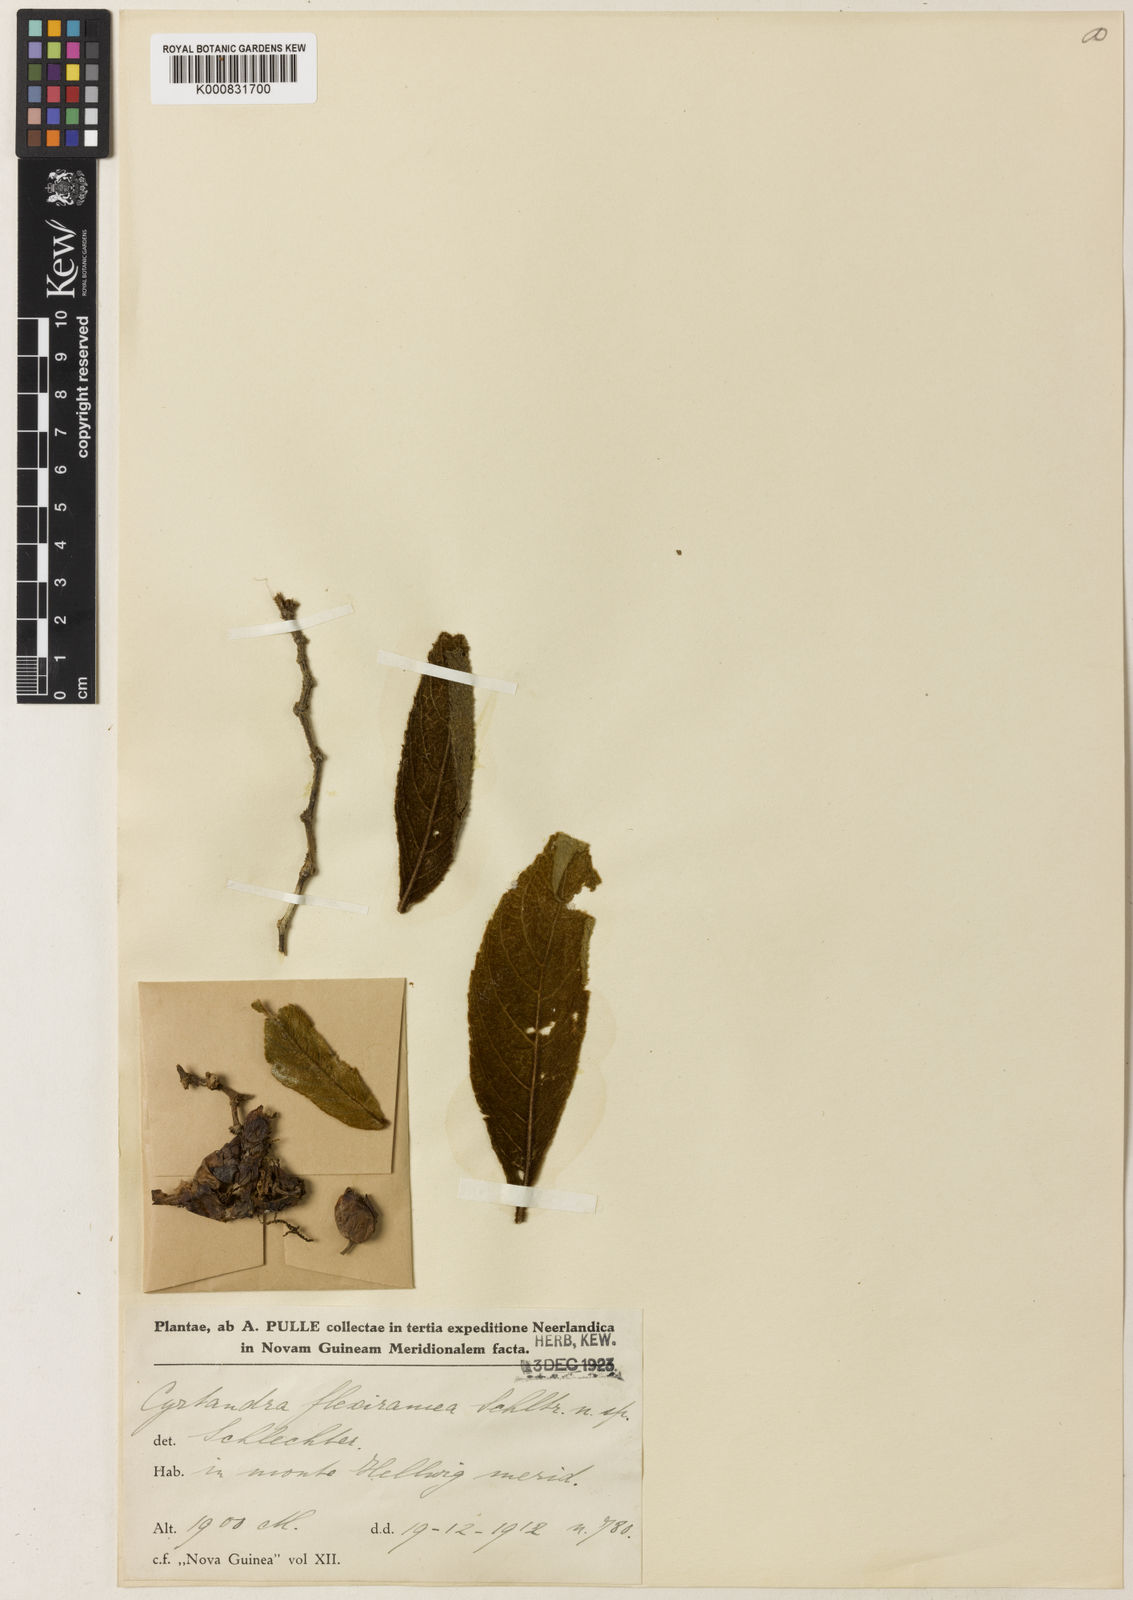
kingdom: Plantae
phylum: Tracheophyta
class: Magnoliopsida
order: Lamiales
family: Gesneriaceae
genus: Cyrtandra
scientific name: Cyrtandra flexiramea
